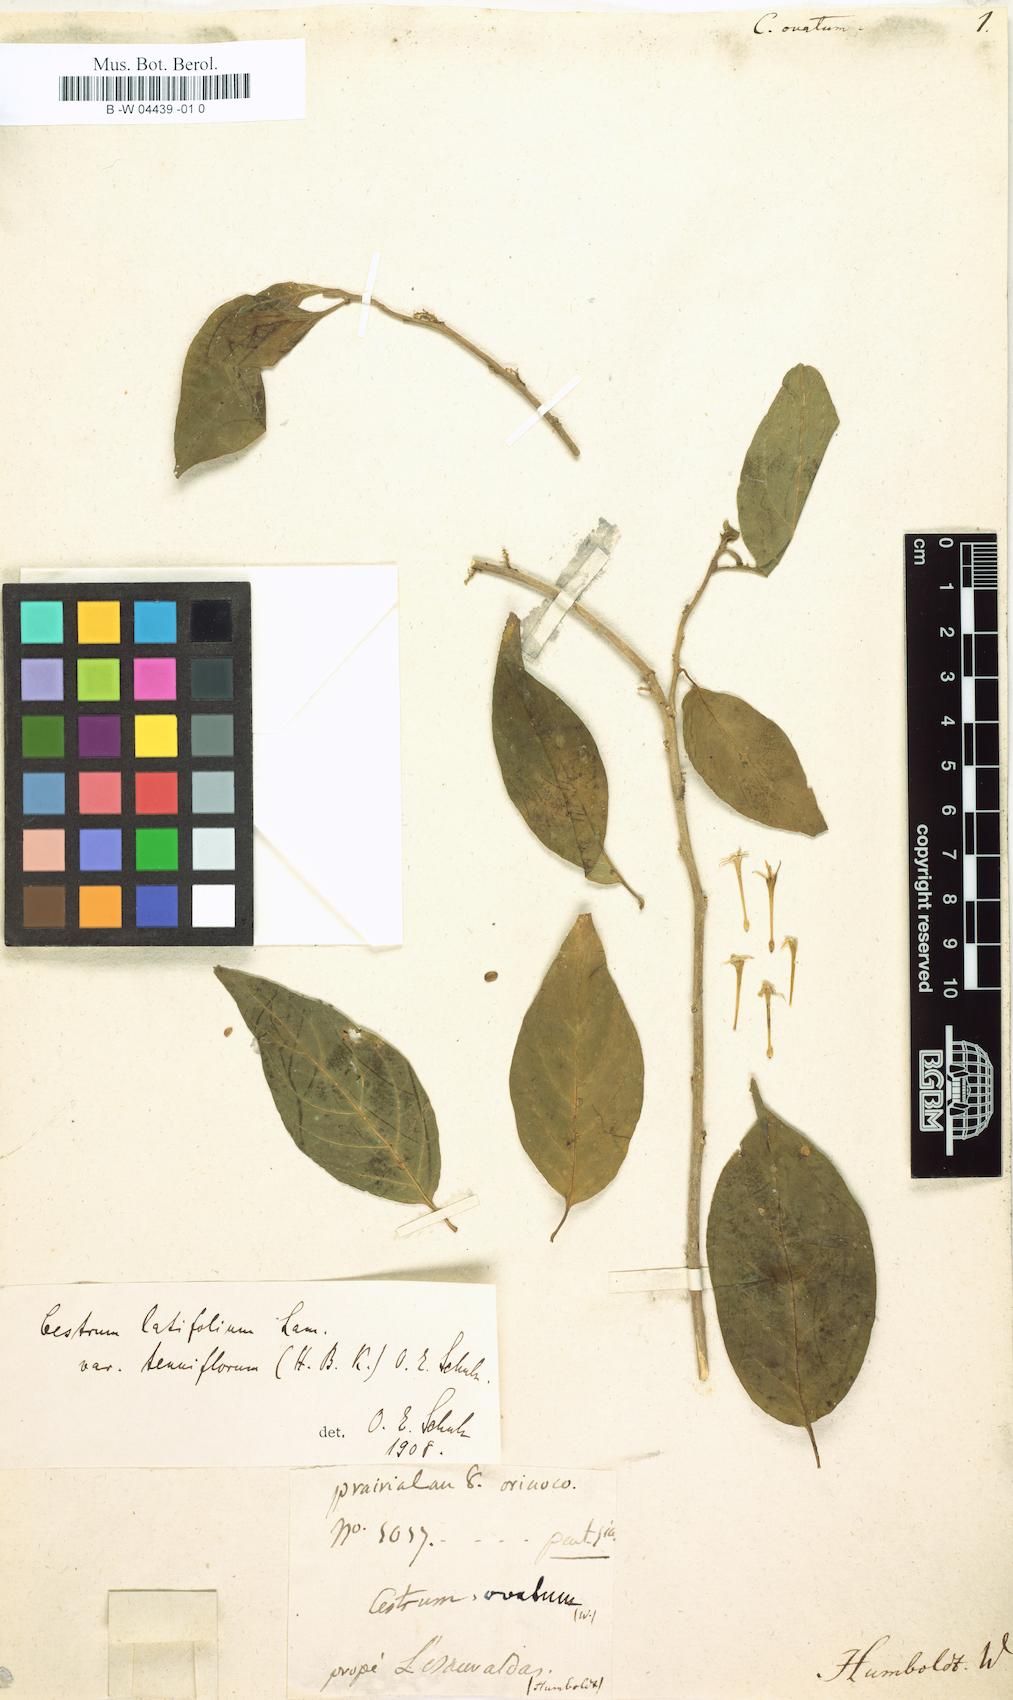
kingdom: Plantae
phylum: Tracheophyta
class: Magnoliopsida
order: Solanales
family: Solanaceae
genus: Cestrum
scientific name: Cestrum latifolium
